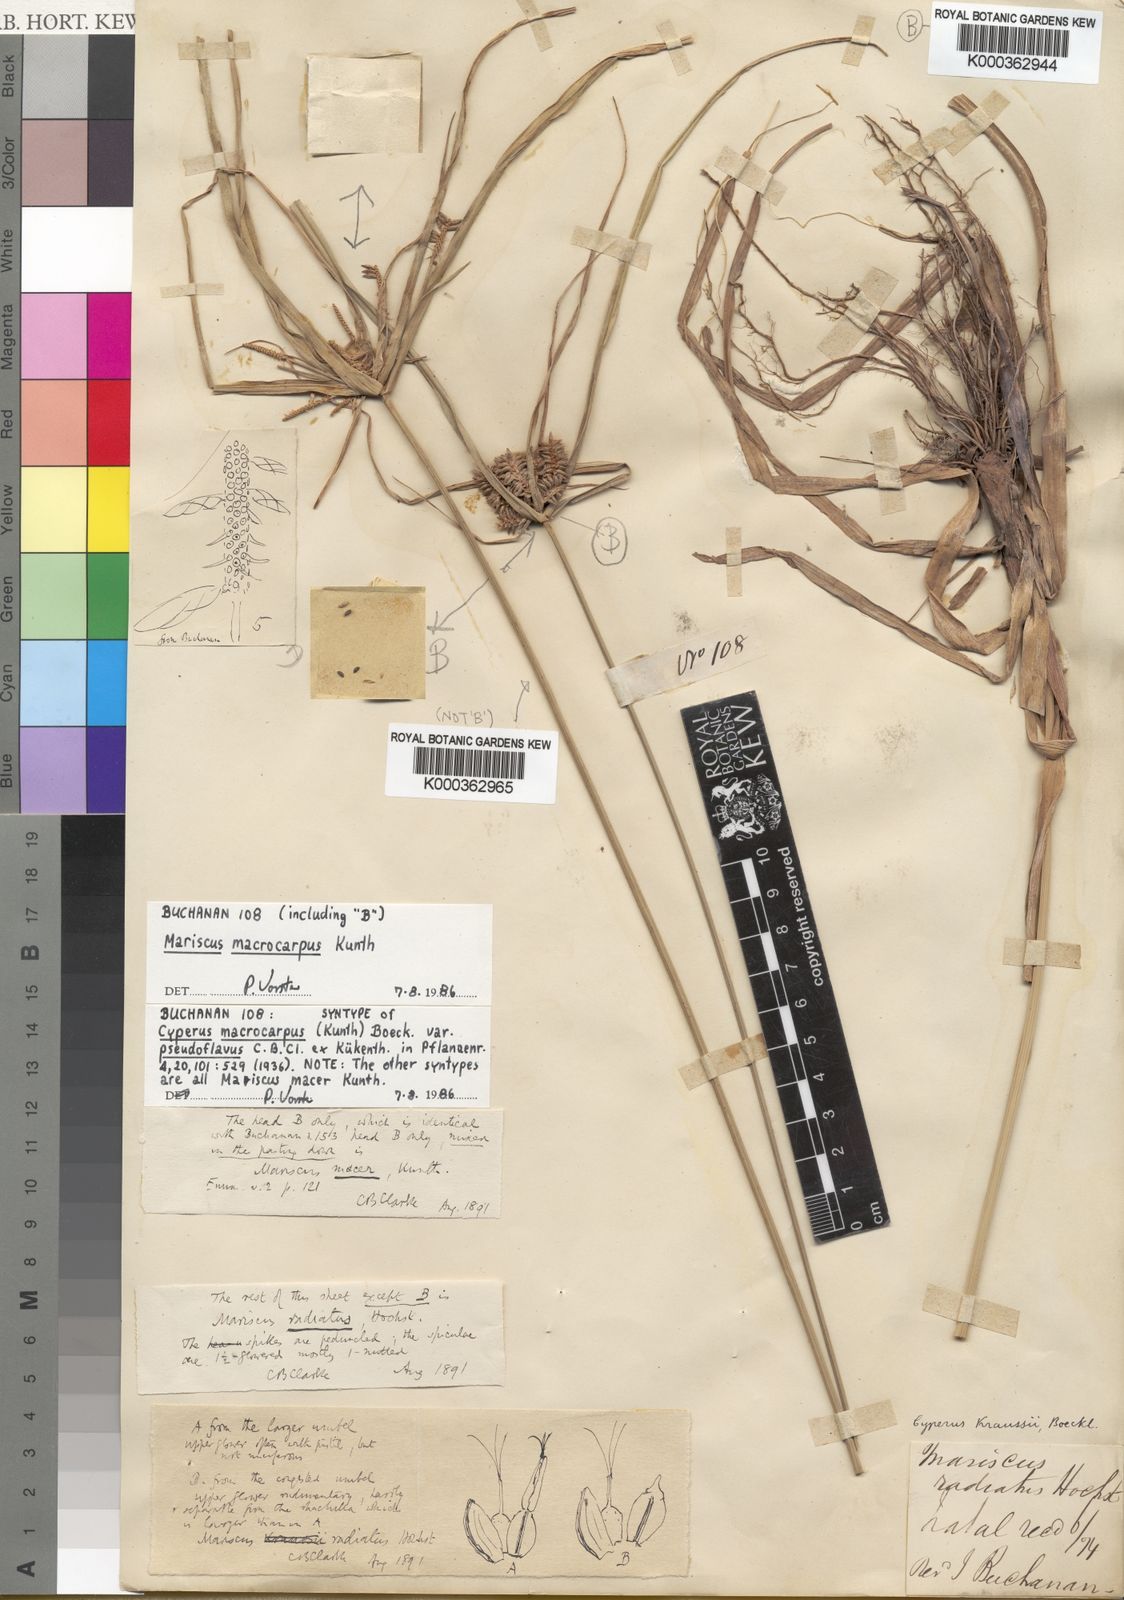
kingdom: Plantae
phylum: Tracheophyta
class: Liliopsida
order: Poales
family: Cyperaceae
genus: Cyperus
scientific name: Cyperus
